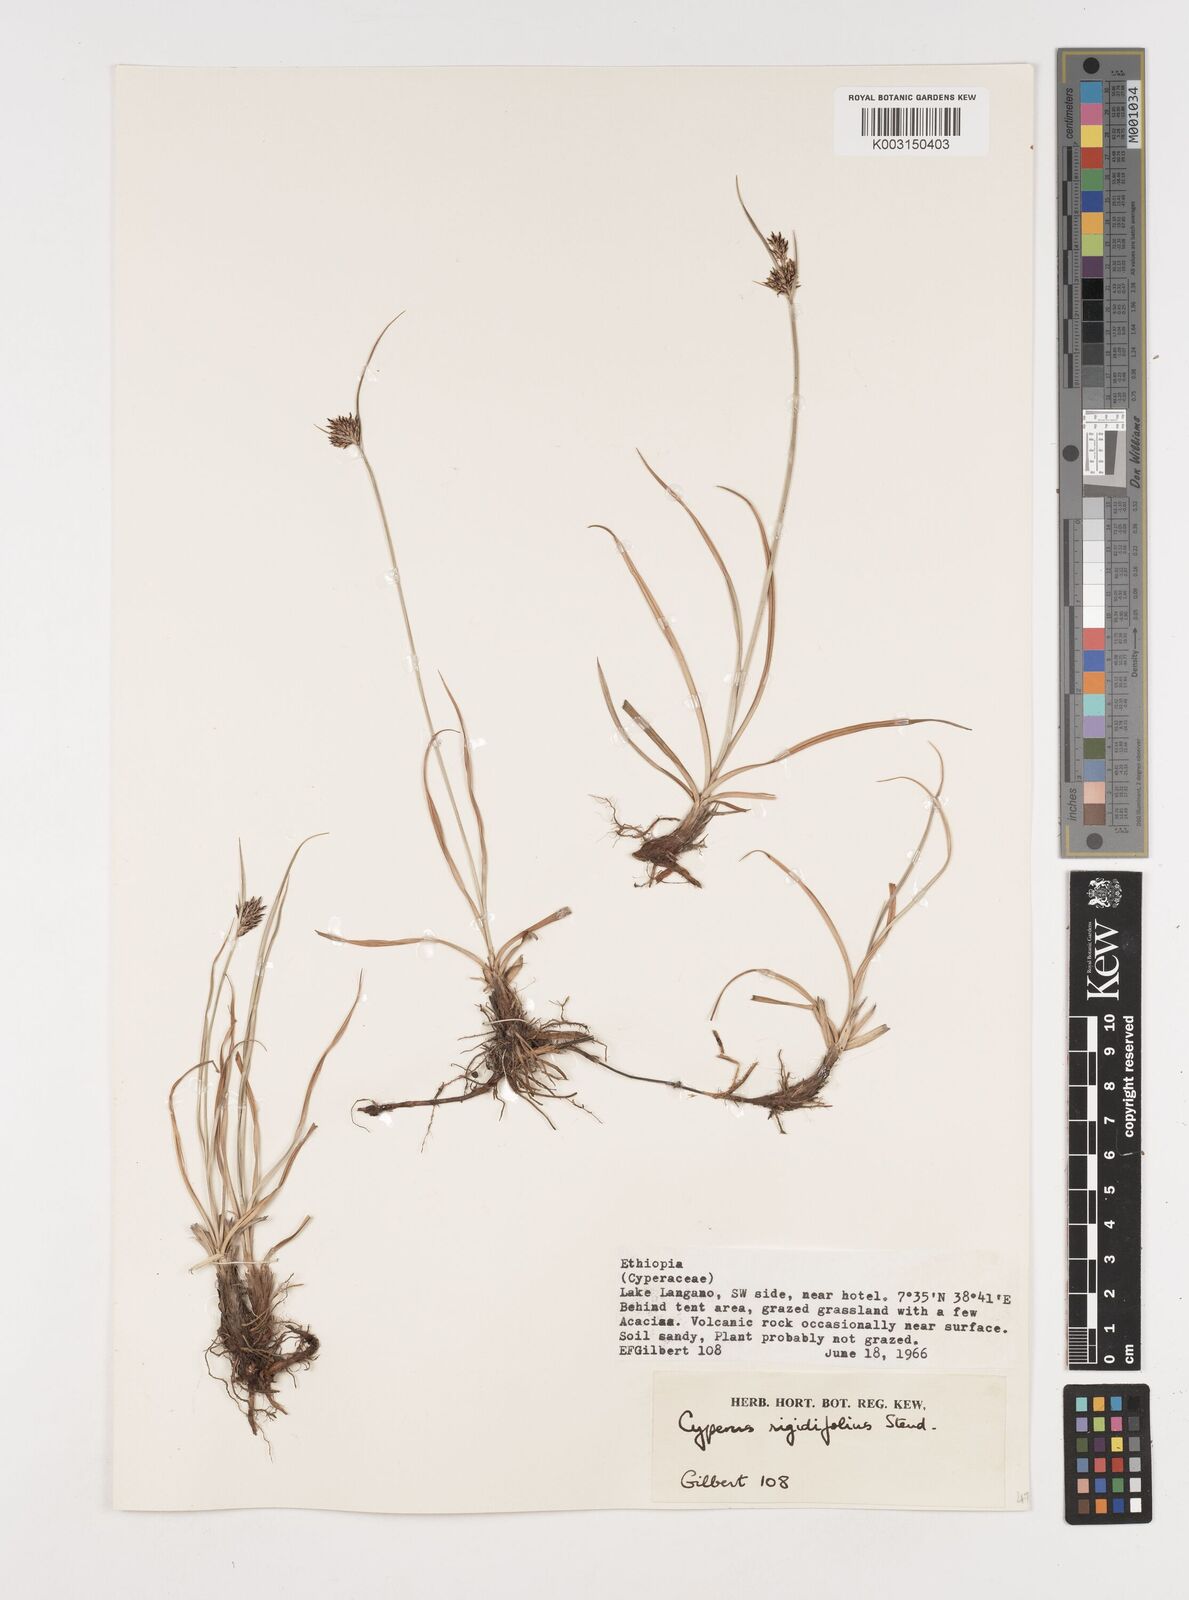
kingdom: Plantae
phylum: Tracheophyta
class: Liliopsida
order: Poales
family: Cyperaceae
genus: Cyperus
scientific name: Cyperus rigidifolius
